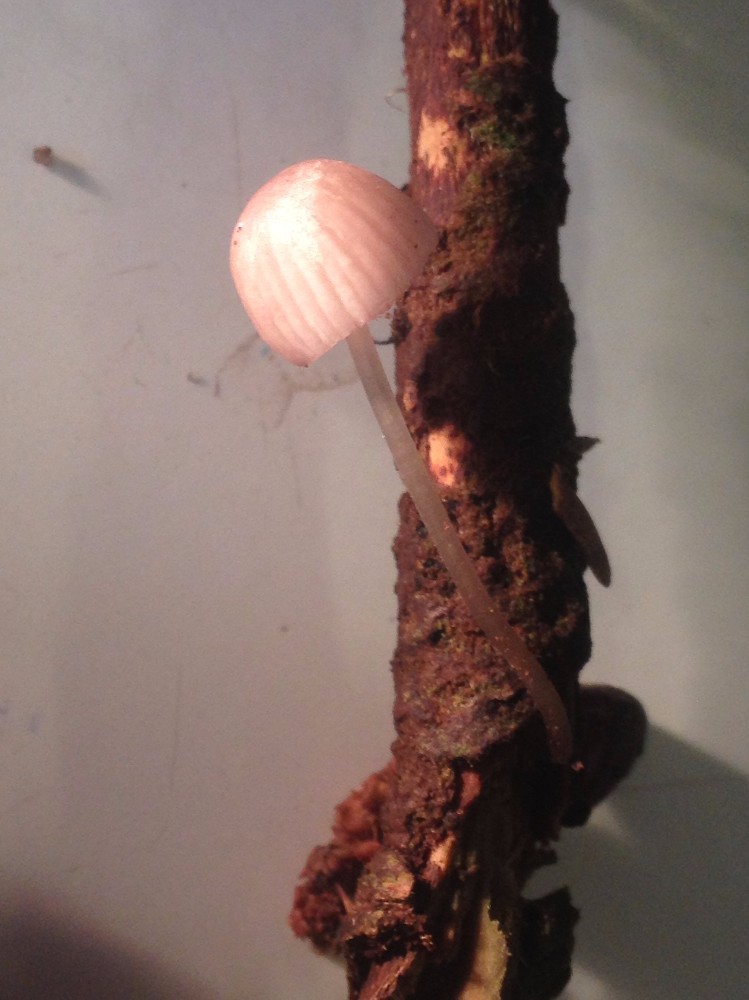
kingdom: Fungi
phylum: Basidiomycota
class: Agaricomycetes
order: Agaricales
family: Mycenaceae
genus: Mycena
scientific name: Mycena rubromarginata
